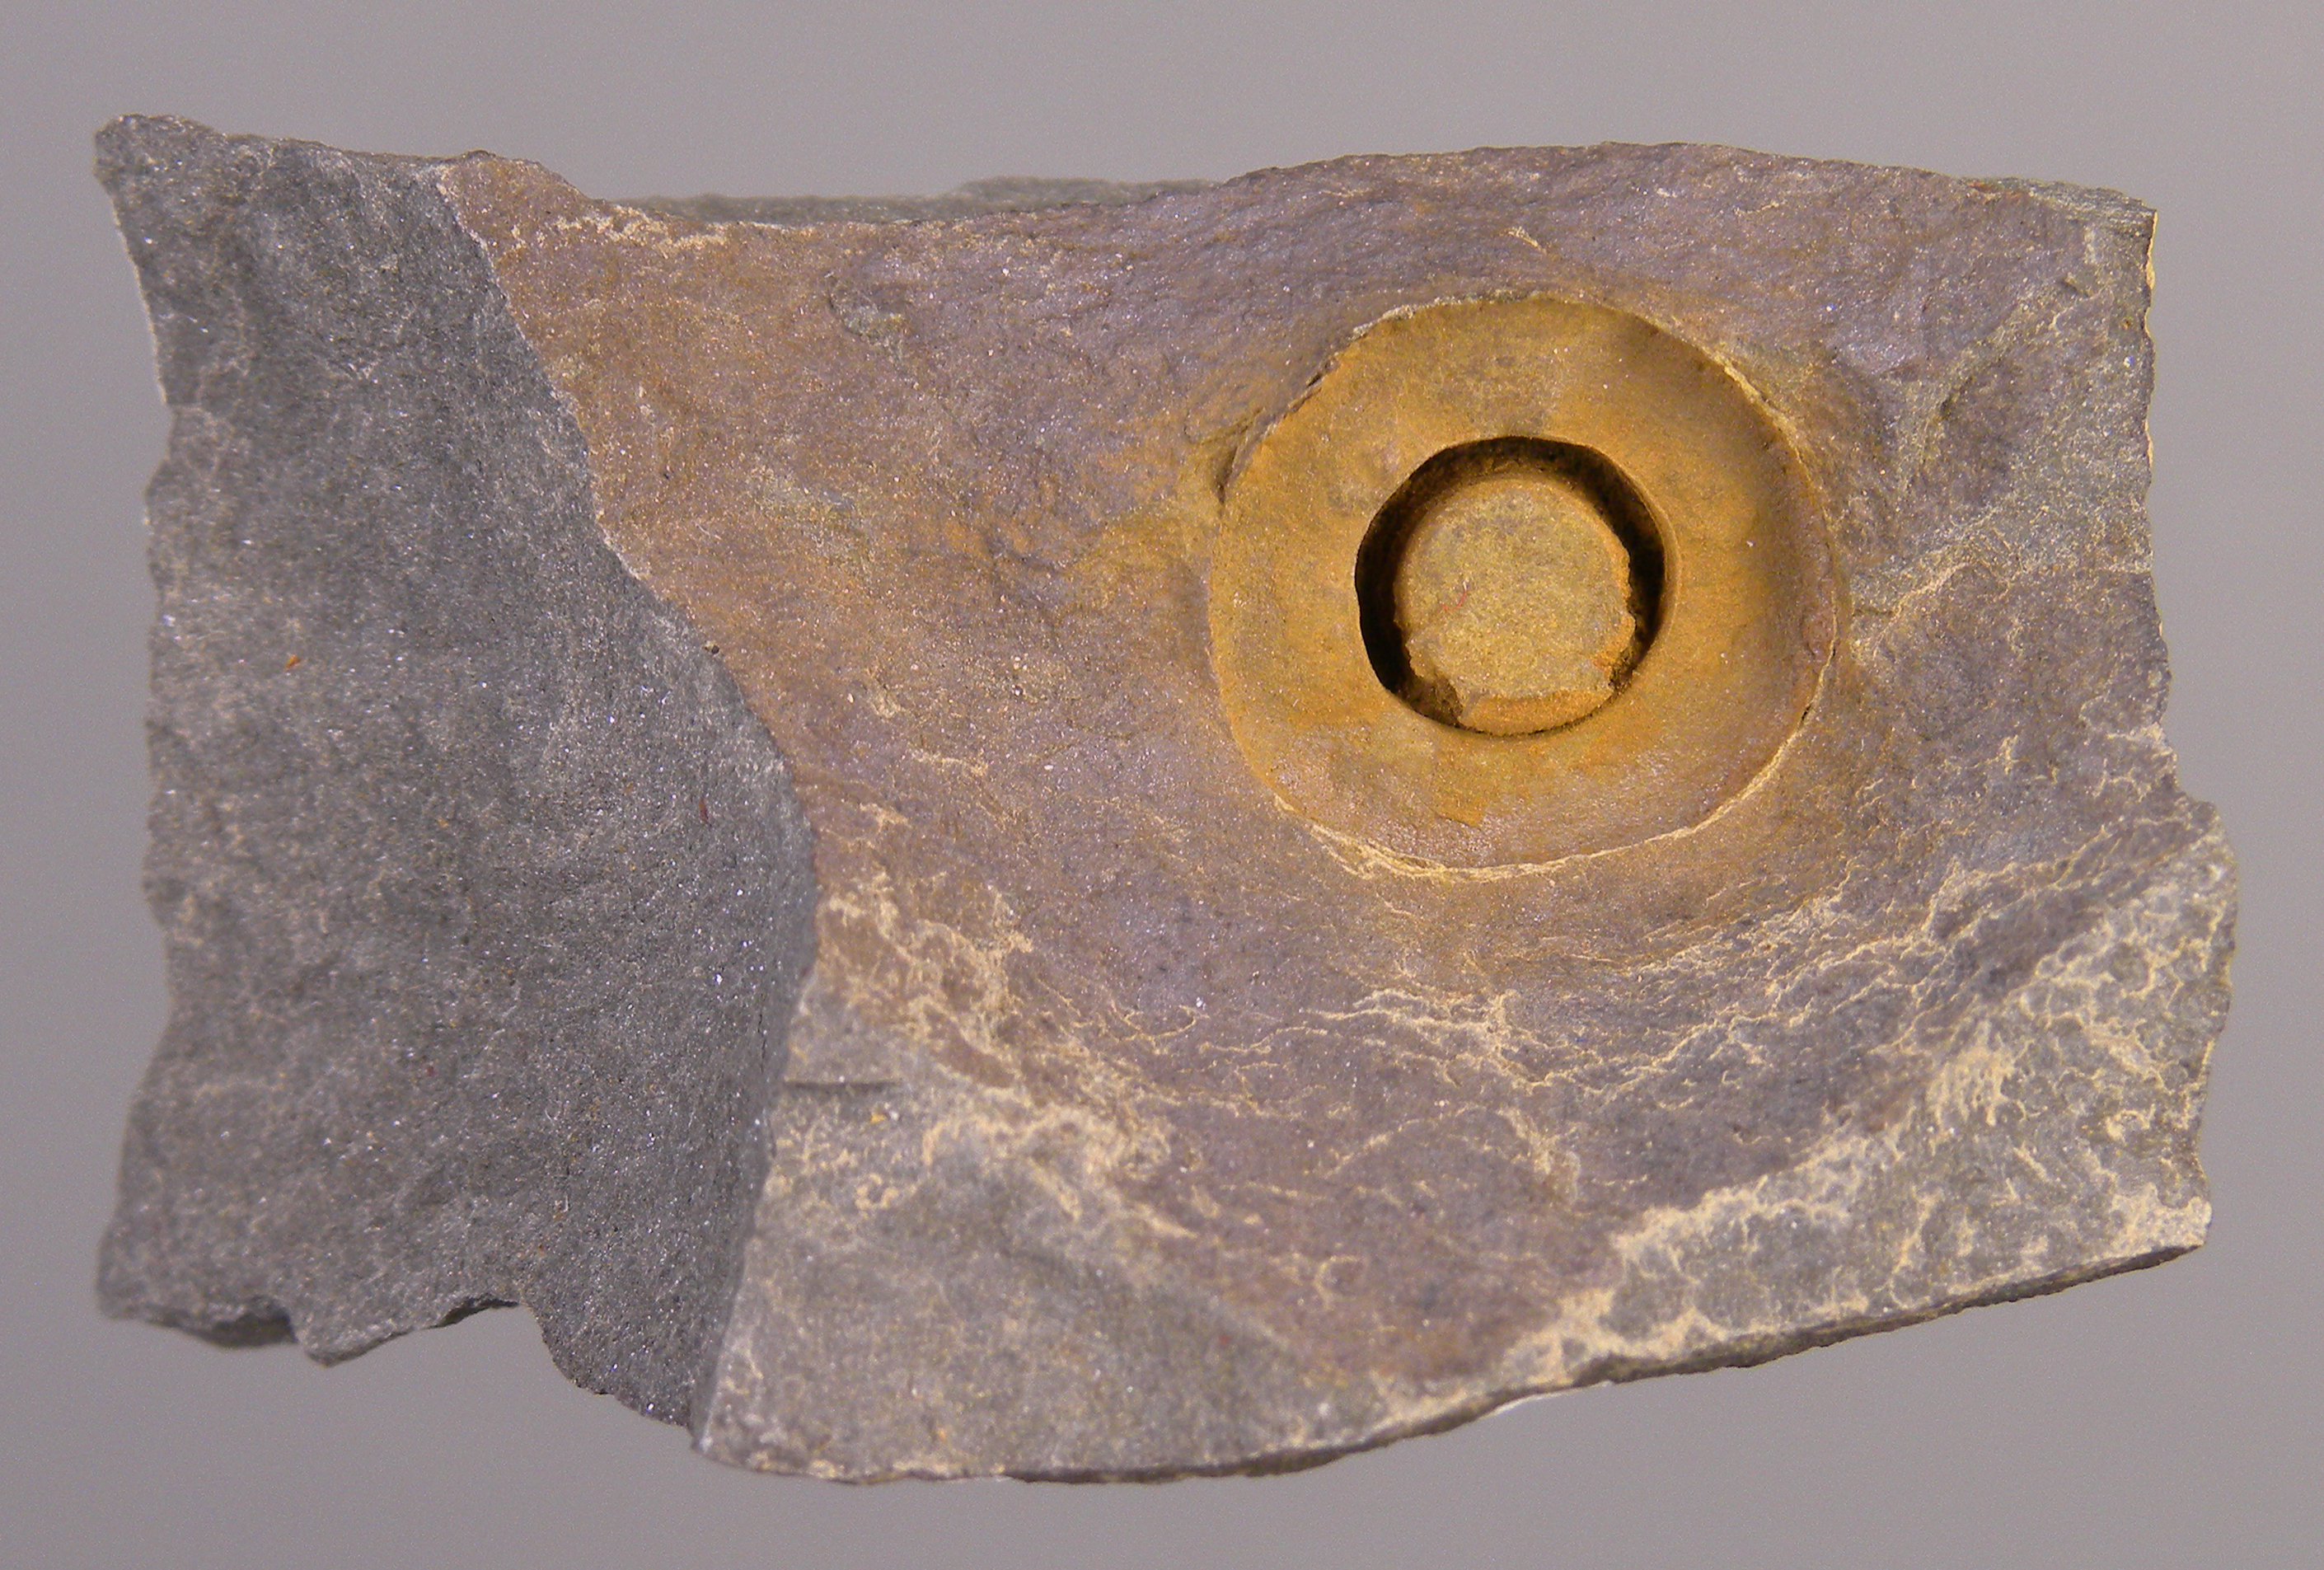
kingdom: Animalia
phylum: Echinodermata
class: Crinoidea
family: Rhodocrinitidae
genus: Acanthocrinus
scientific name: Acanthocrinus
